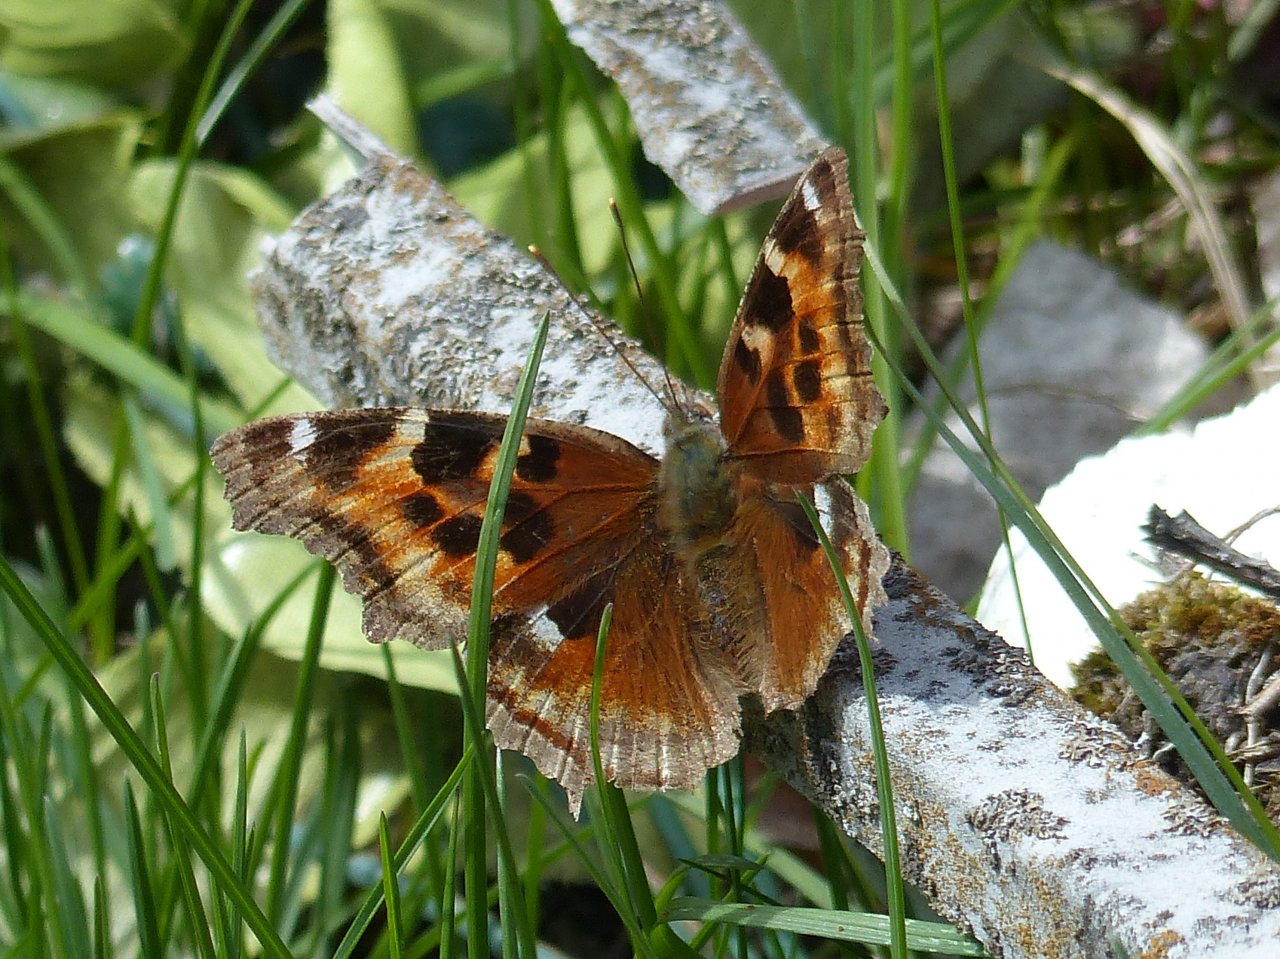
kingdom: Animalia
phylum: Arthropoda
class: Insecta
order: Lepidoptera
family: Nymphalidae
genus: Polygonia
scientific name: Polygonia vaualbum
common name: Compton Tortoiseshell
